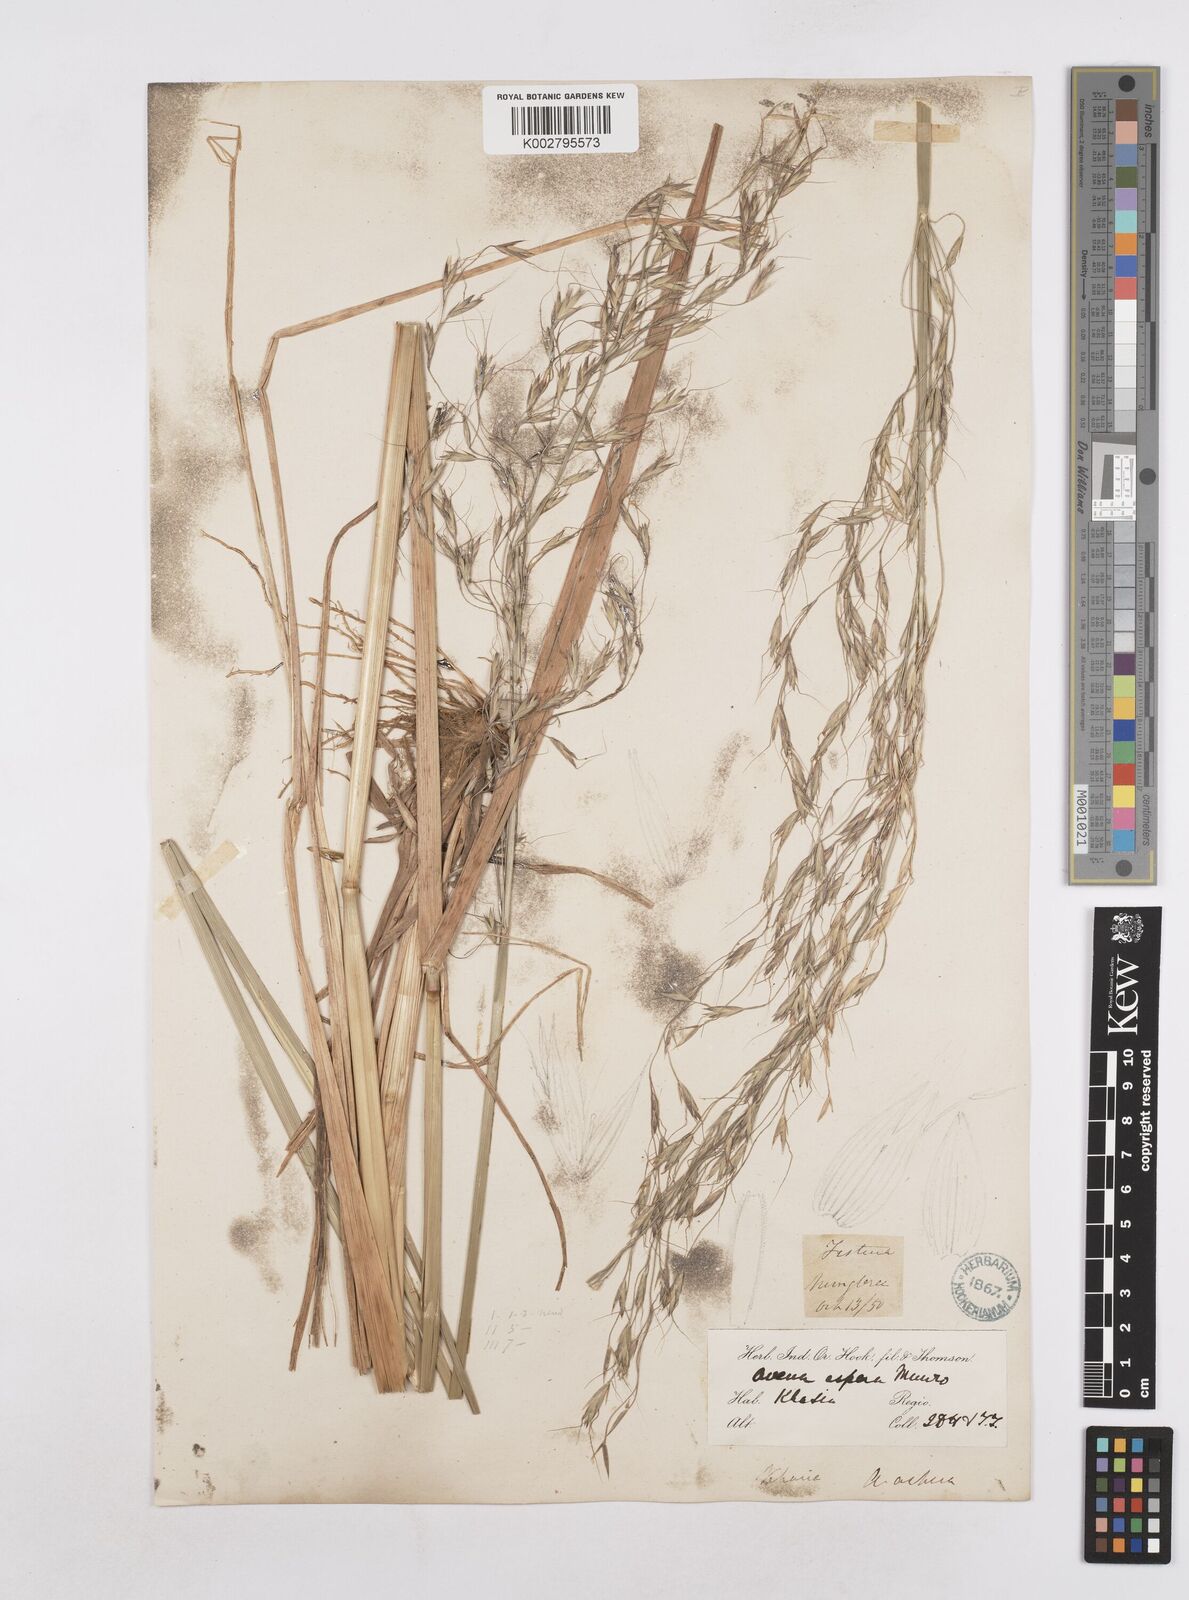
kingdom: Plantae
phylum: Tracheophyta
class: Liliopsida
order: Poales
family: Poaceae
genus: Trisetopsis
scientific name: Trisetopsis junghuhnii
